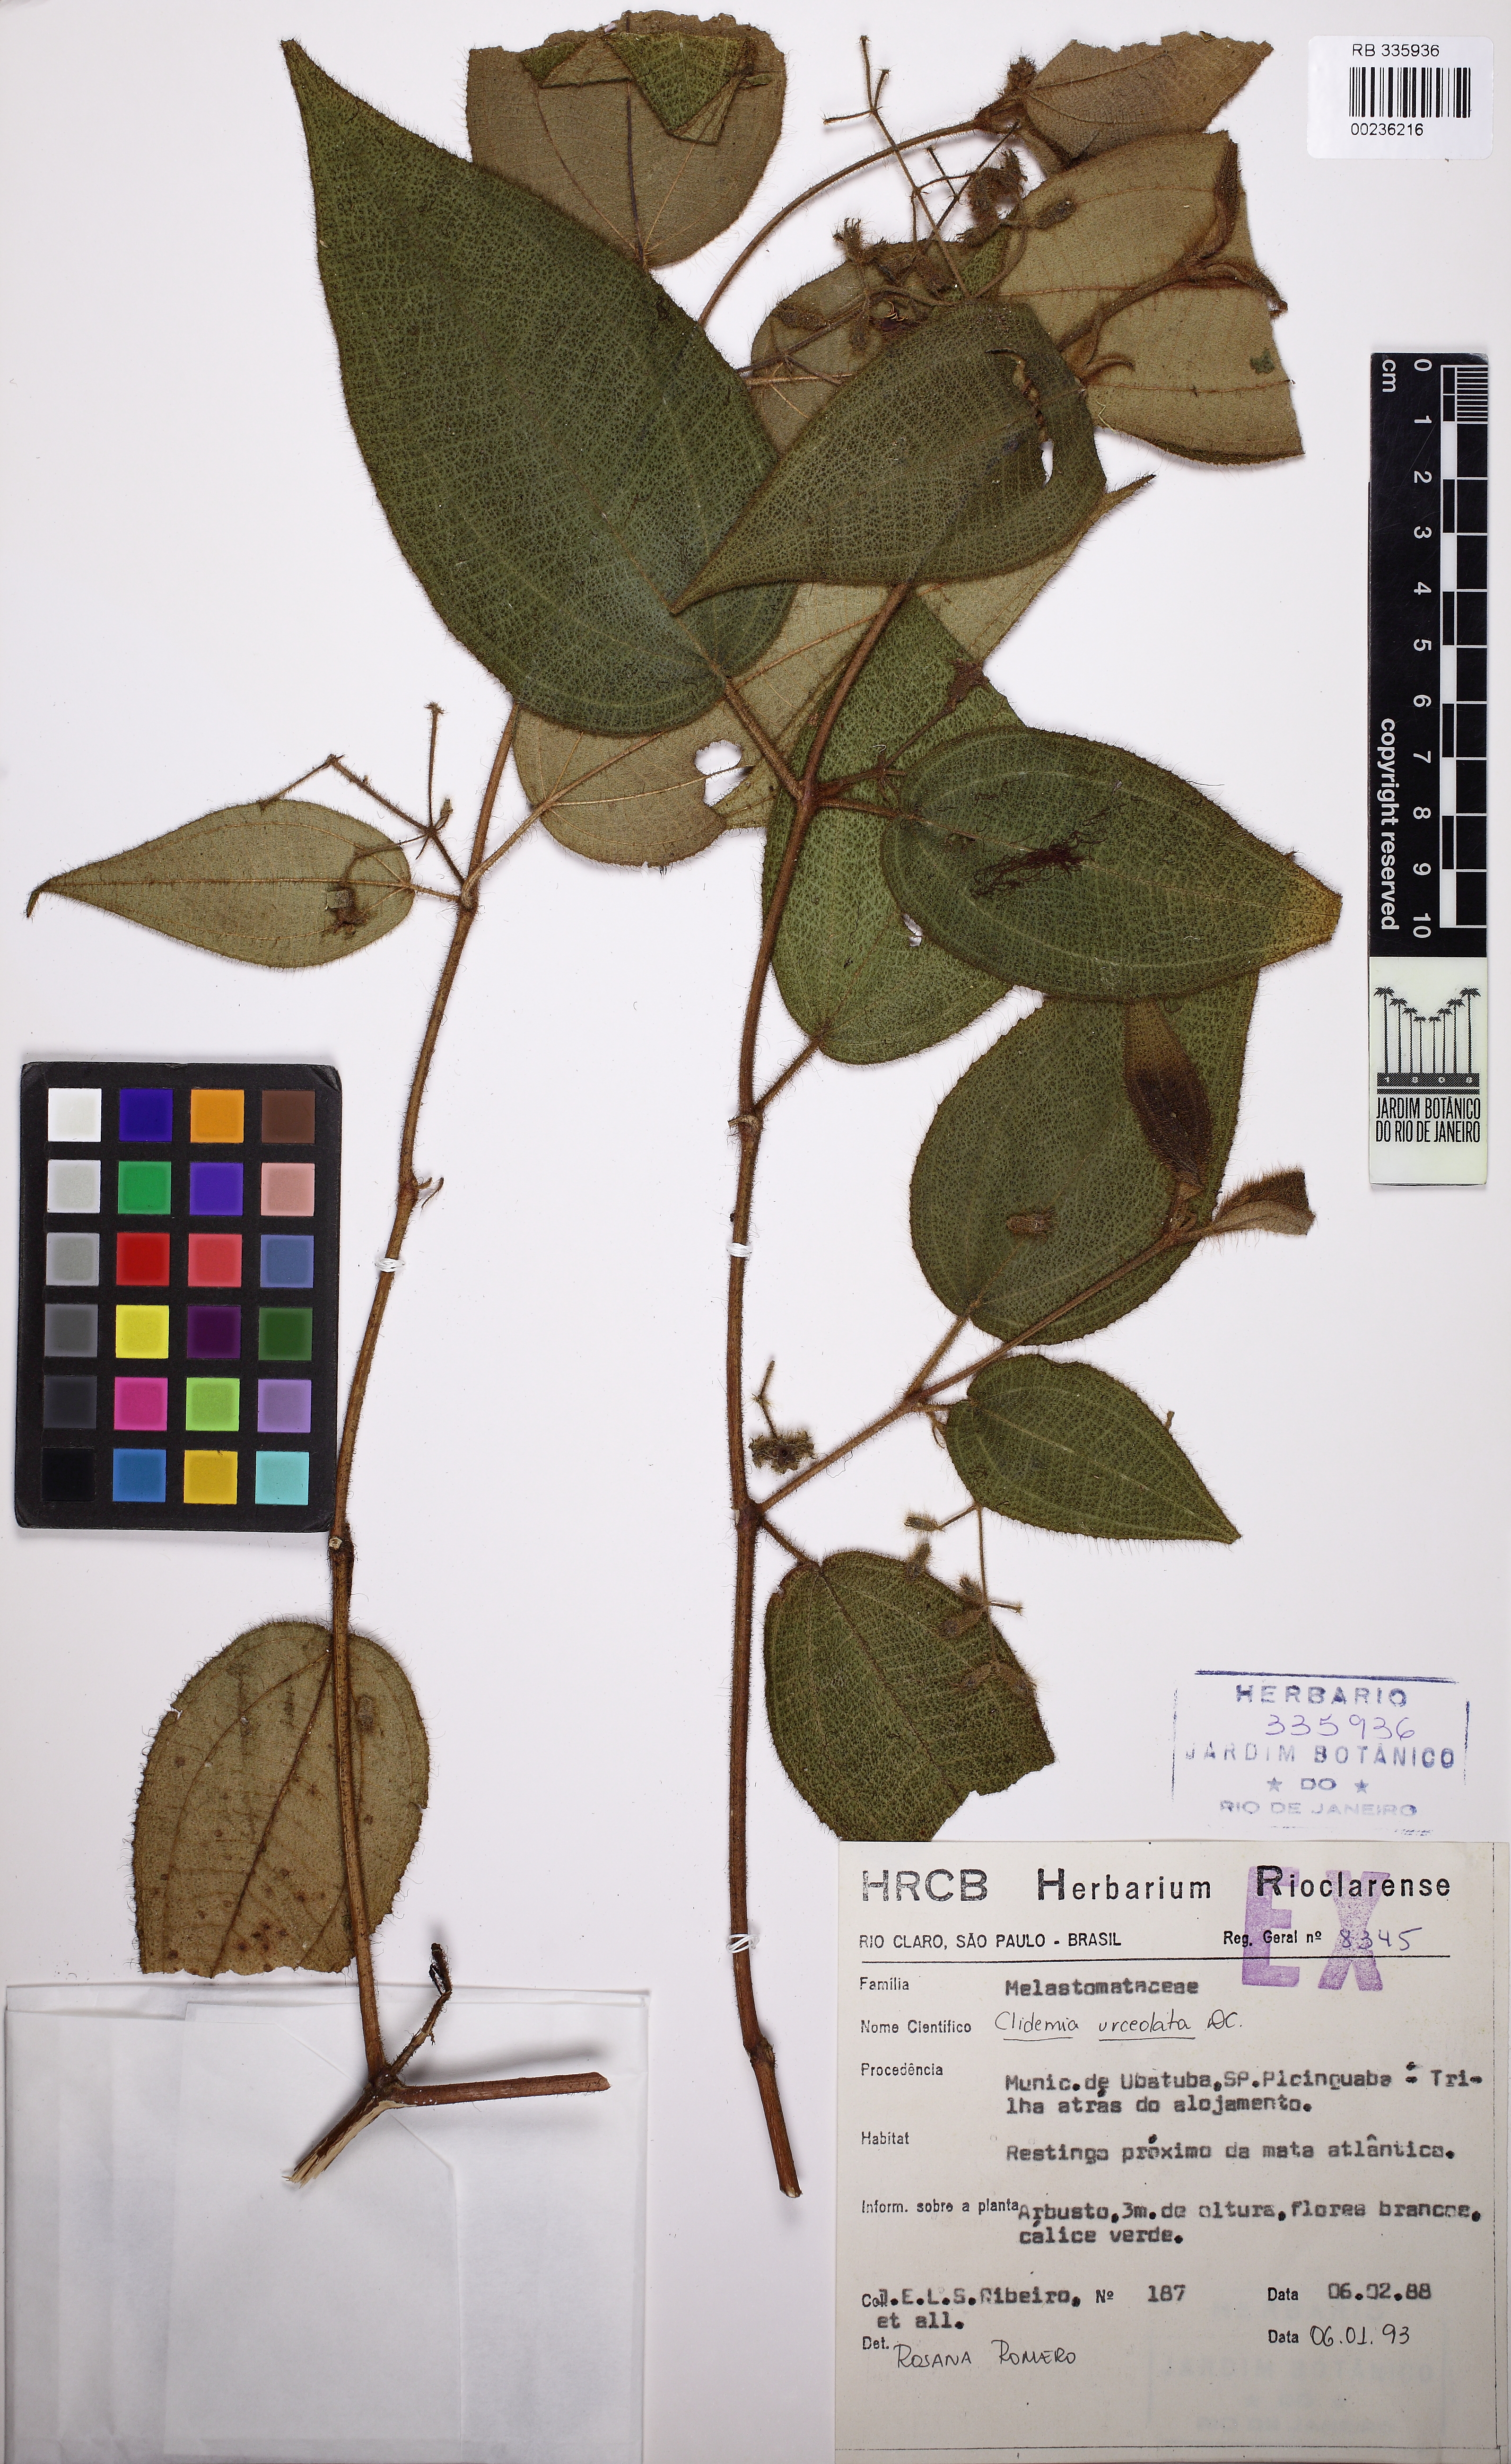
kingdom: Plantae
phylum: Tracheophyta
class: Magnoliopsida
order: Myrtales
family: Melastomataceae
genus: Miconia
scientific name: Miconia neourceolata
